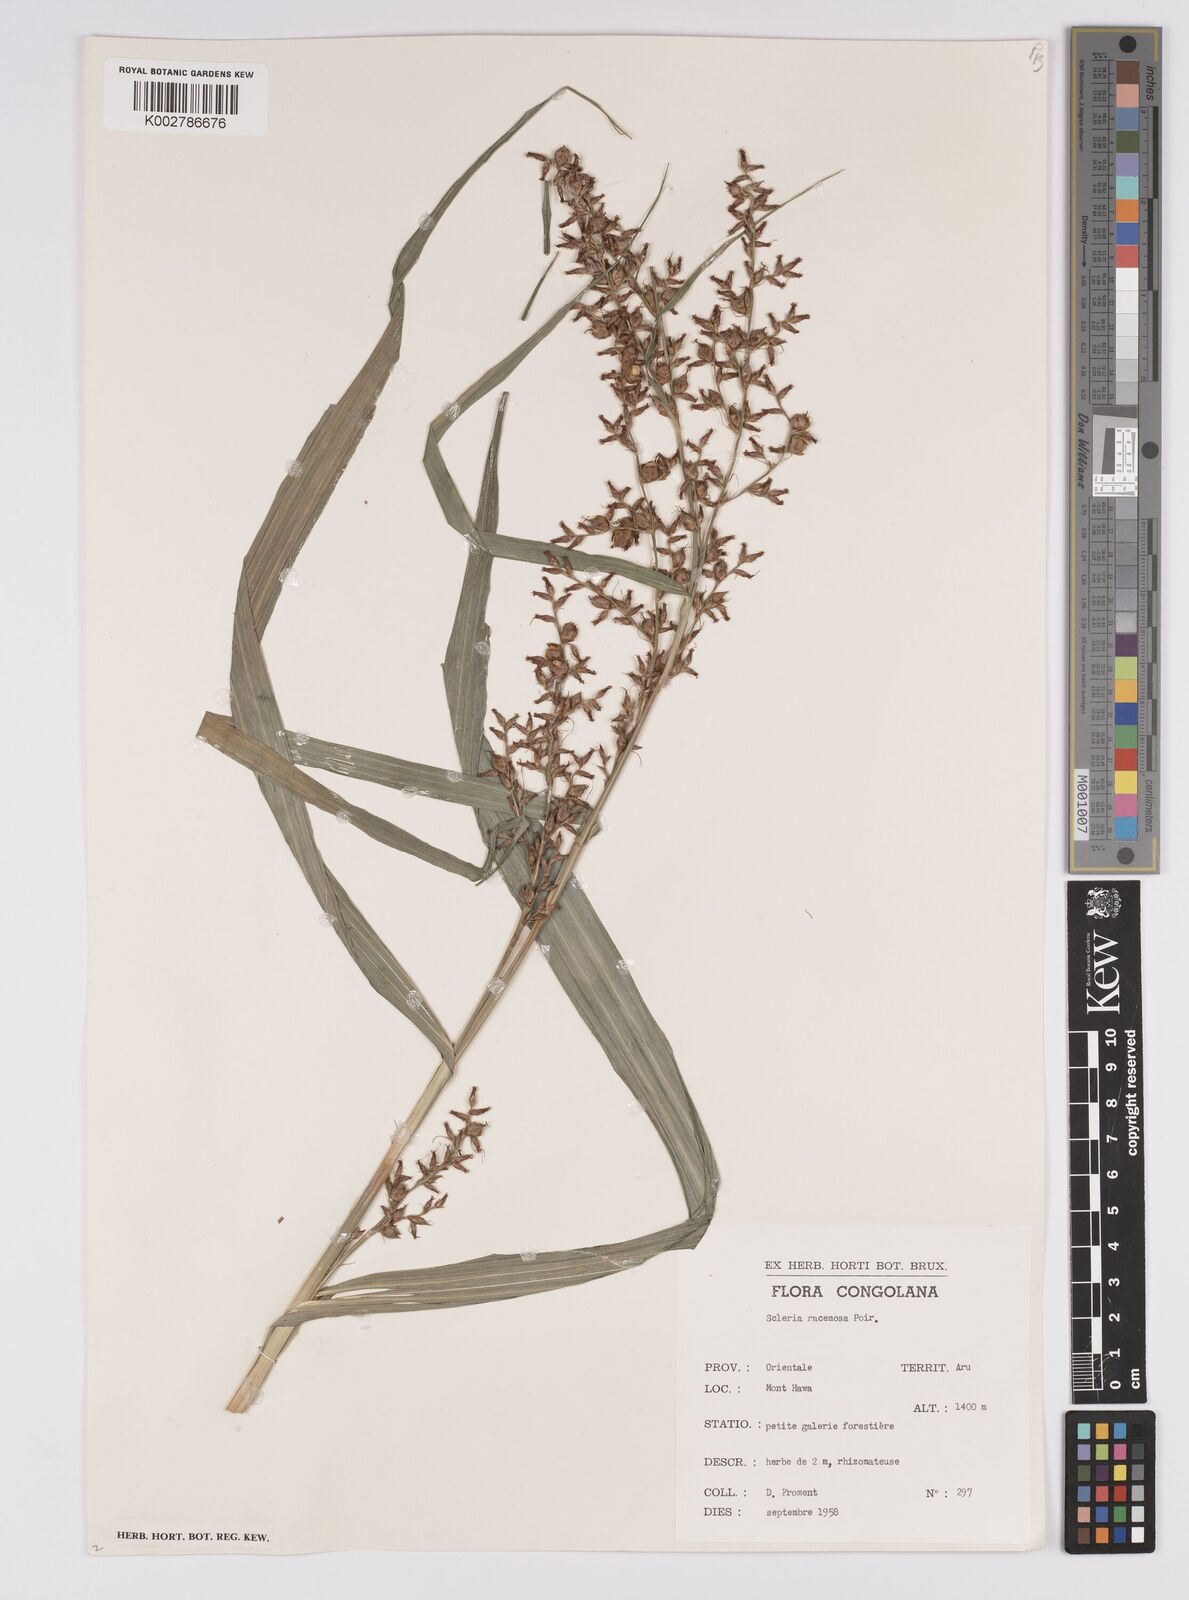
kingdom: Plantae
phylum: Tracheophyta
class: Liliopsida
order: Poales
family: Cyperaceae
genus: Scleria
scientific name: Scleria racemosa
